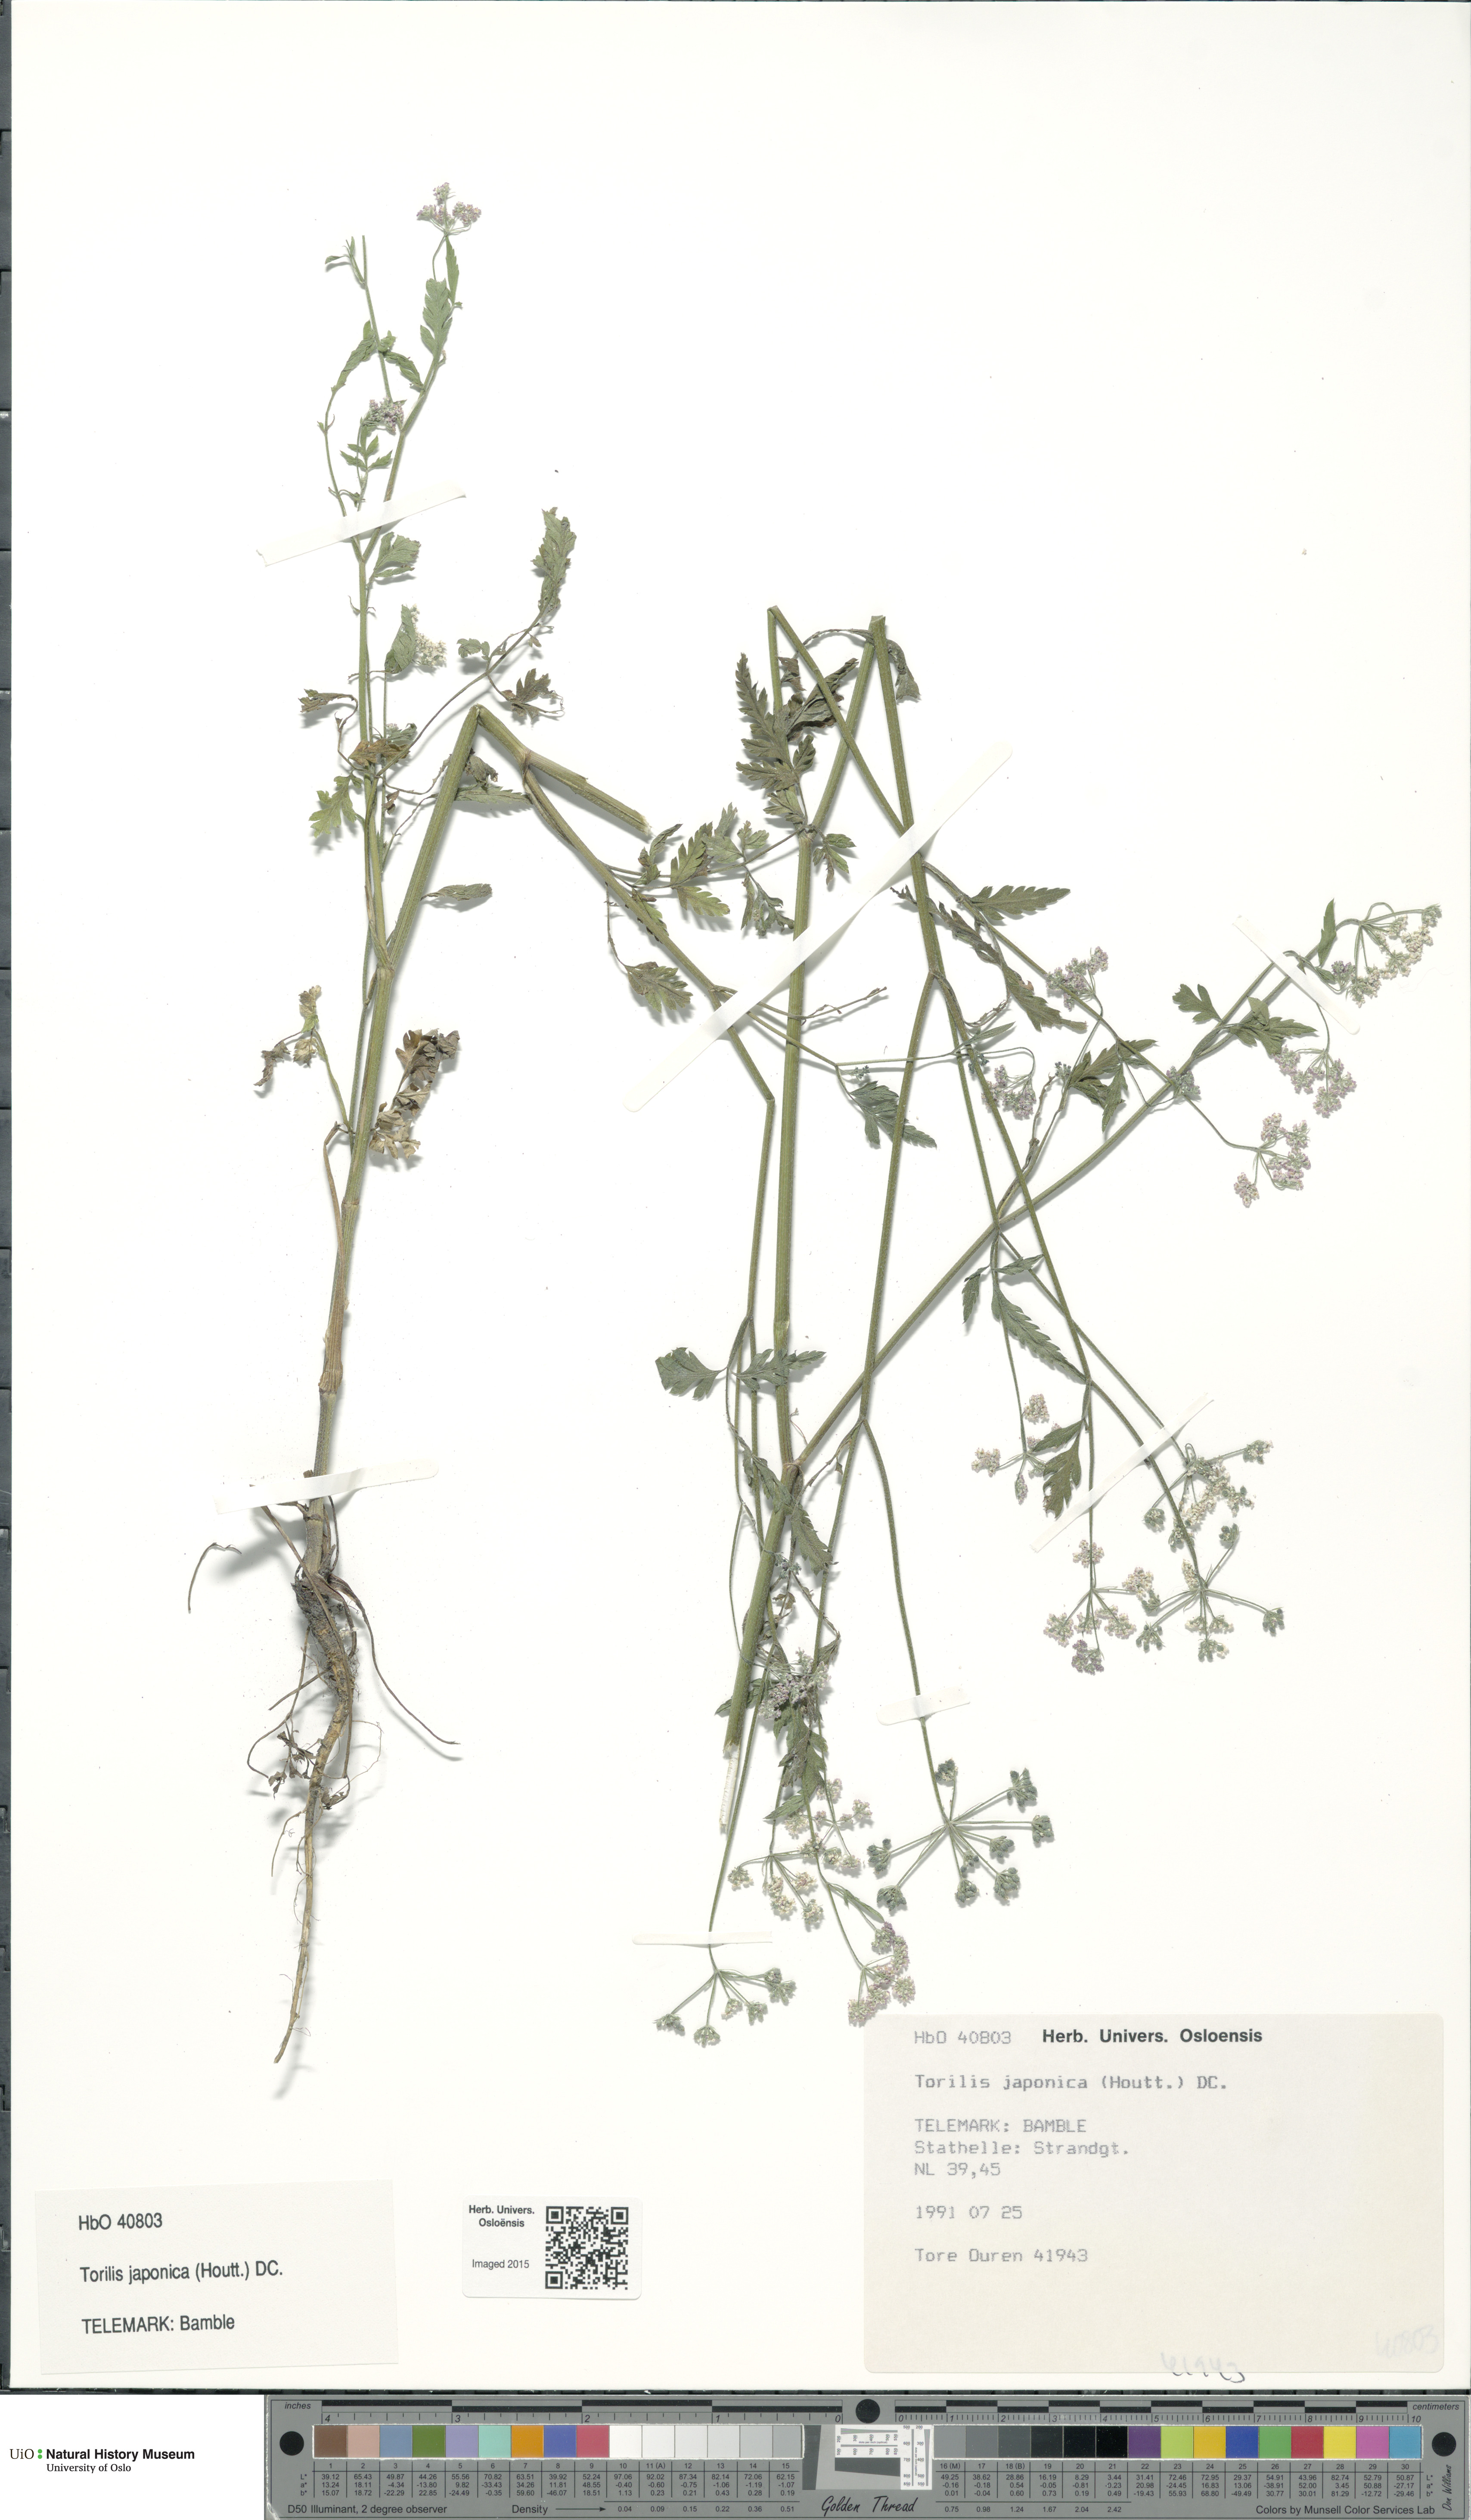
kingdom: Plantae
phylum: Tracheophyta
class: Magnoliopsida
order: Apiales
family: Apiaceae
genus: Torilis
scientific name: Torilis japonica
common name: Upright hedge-parsley
